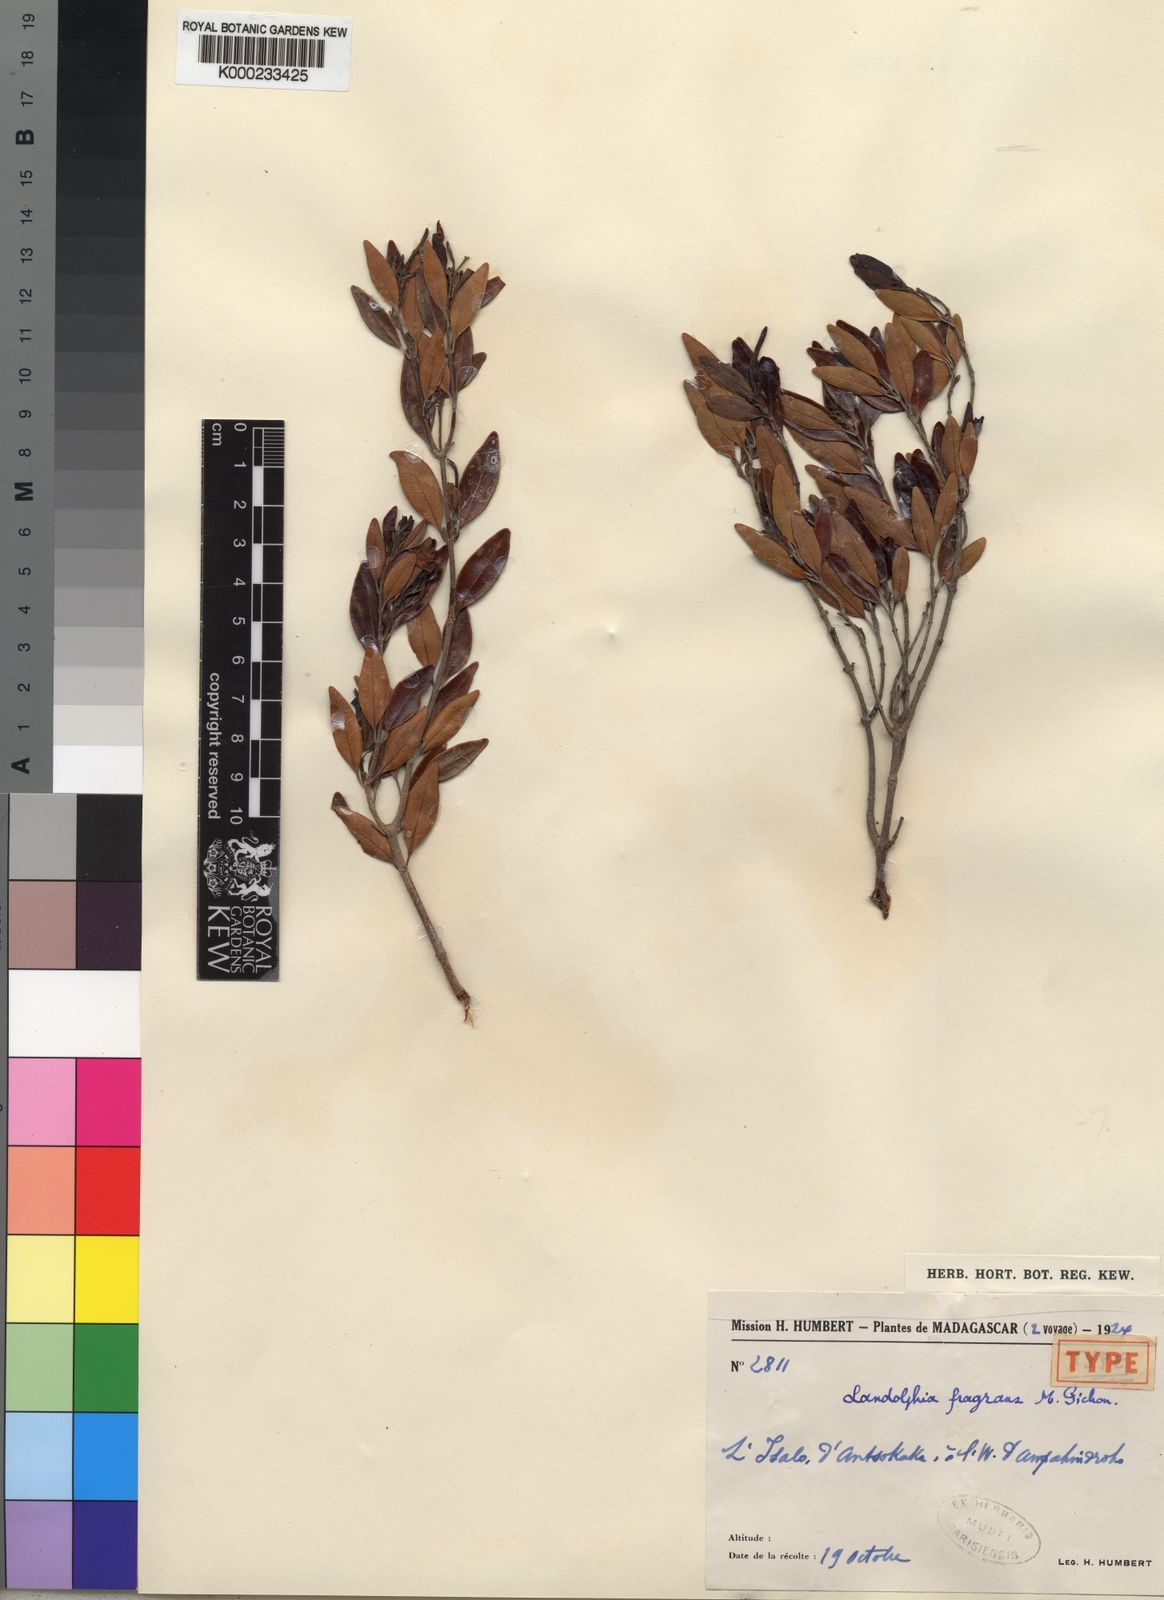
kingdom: Plantae
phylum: Tracheophyta
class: Magnoliopsida
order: Gentianales
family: Apocynaceae
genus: Landolphia
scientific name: Landolphia myrtifolia
